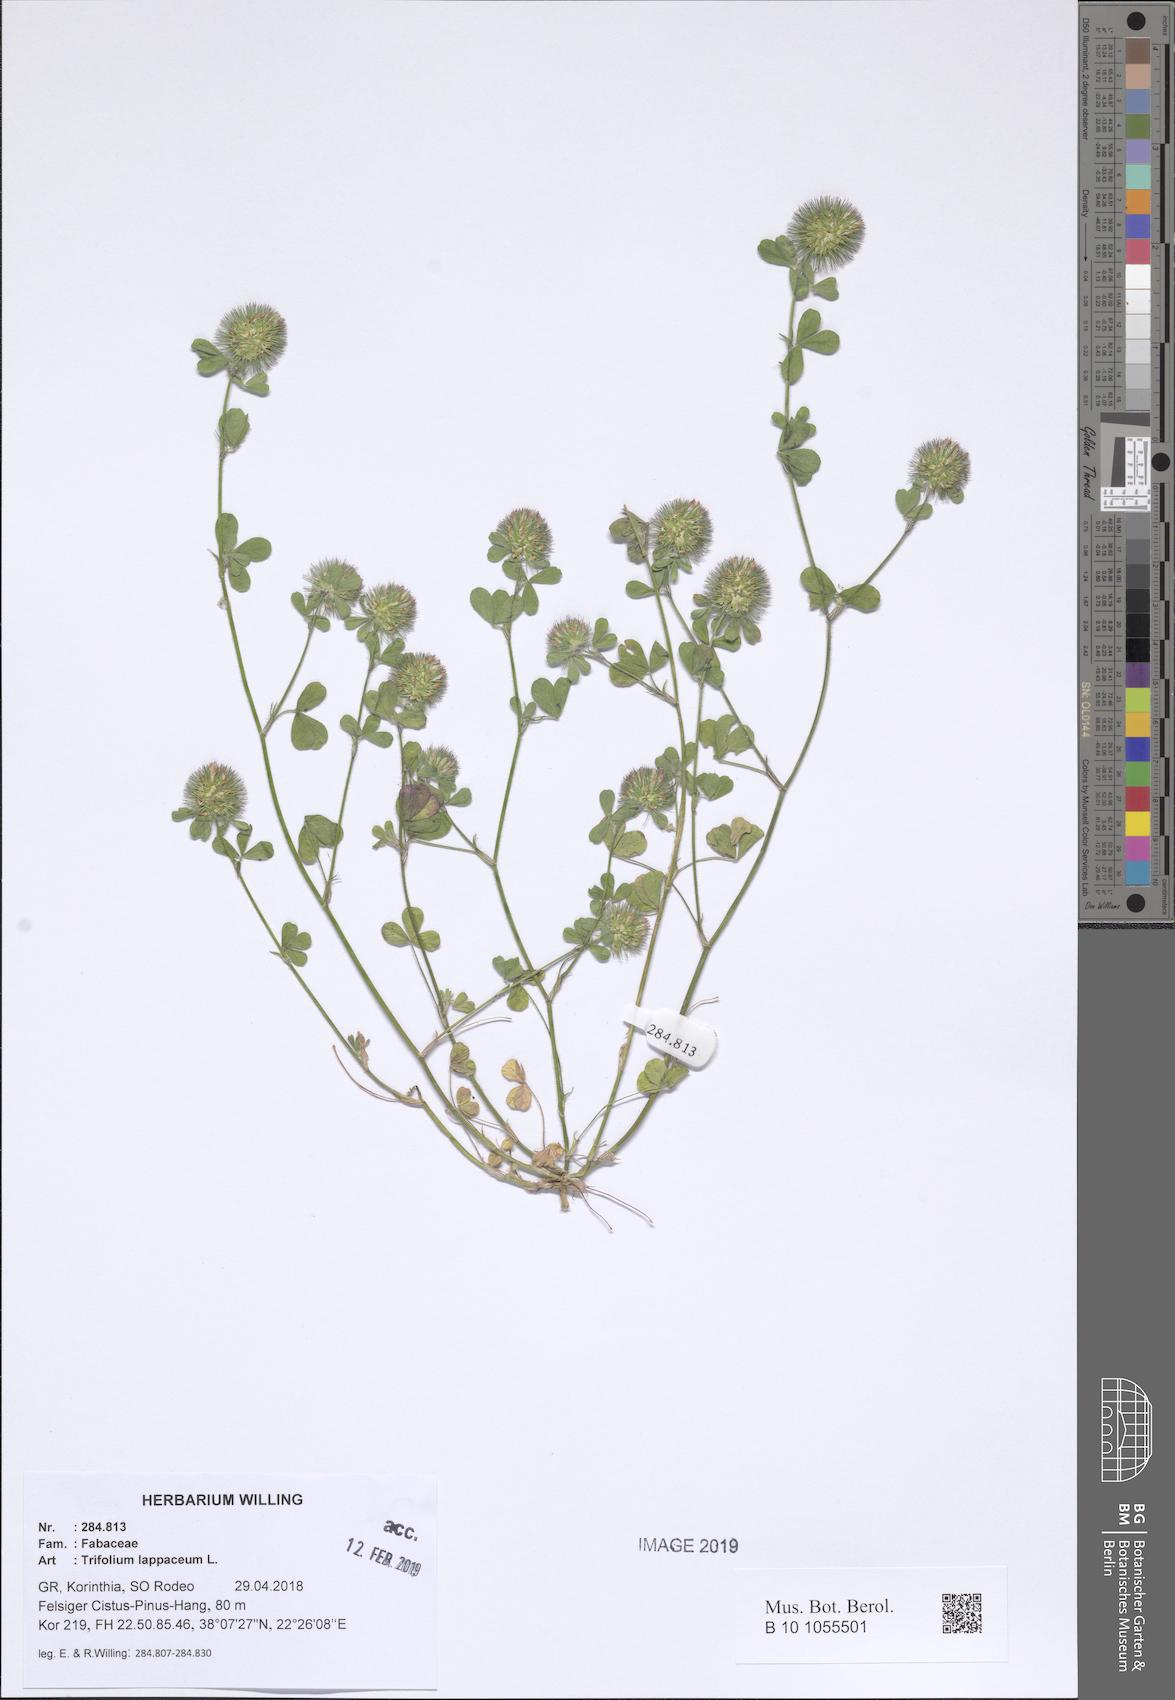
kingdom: Plantae
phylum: Tracheophyta
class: Magnoliopsida
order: Fabales
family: Fabaceae
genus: Trifolium
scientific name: Trifolium lappaceum
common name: Bur clover
